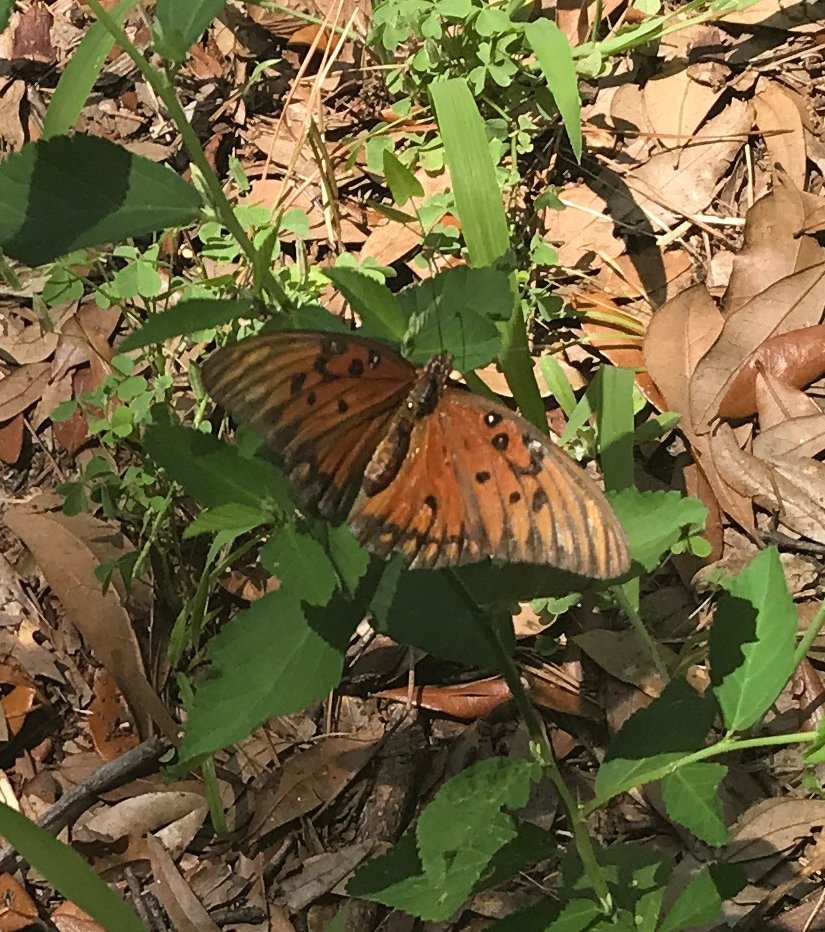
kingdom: Animalia
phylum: Arthropoda
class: Insecta
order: Lepidoptera
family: Nymphalidae
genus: Dione
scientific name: Dione vanillae
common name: Gulf Fritillary
